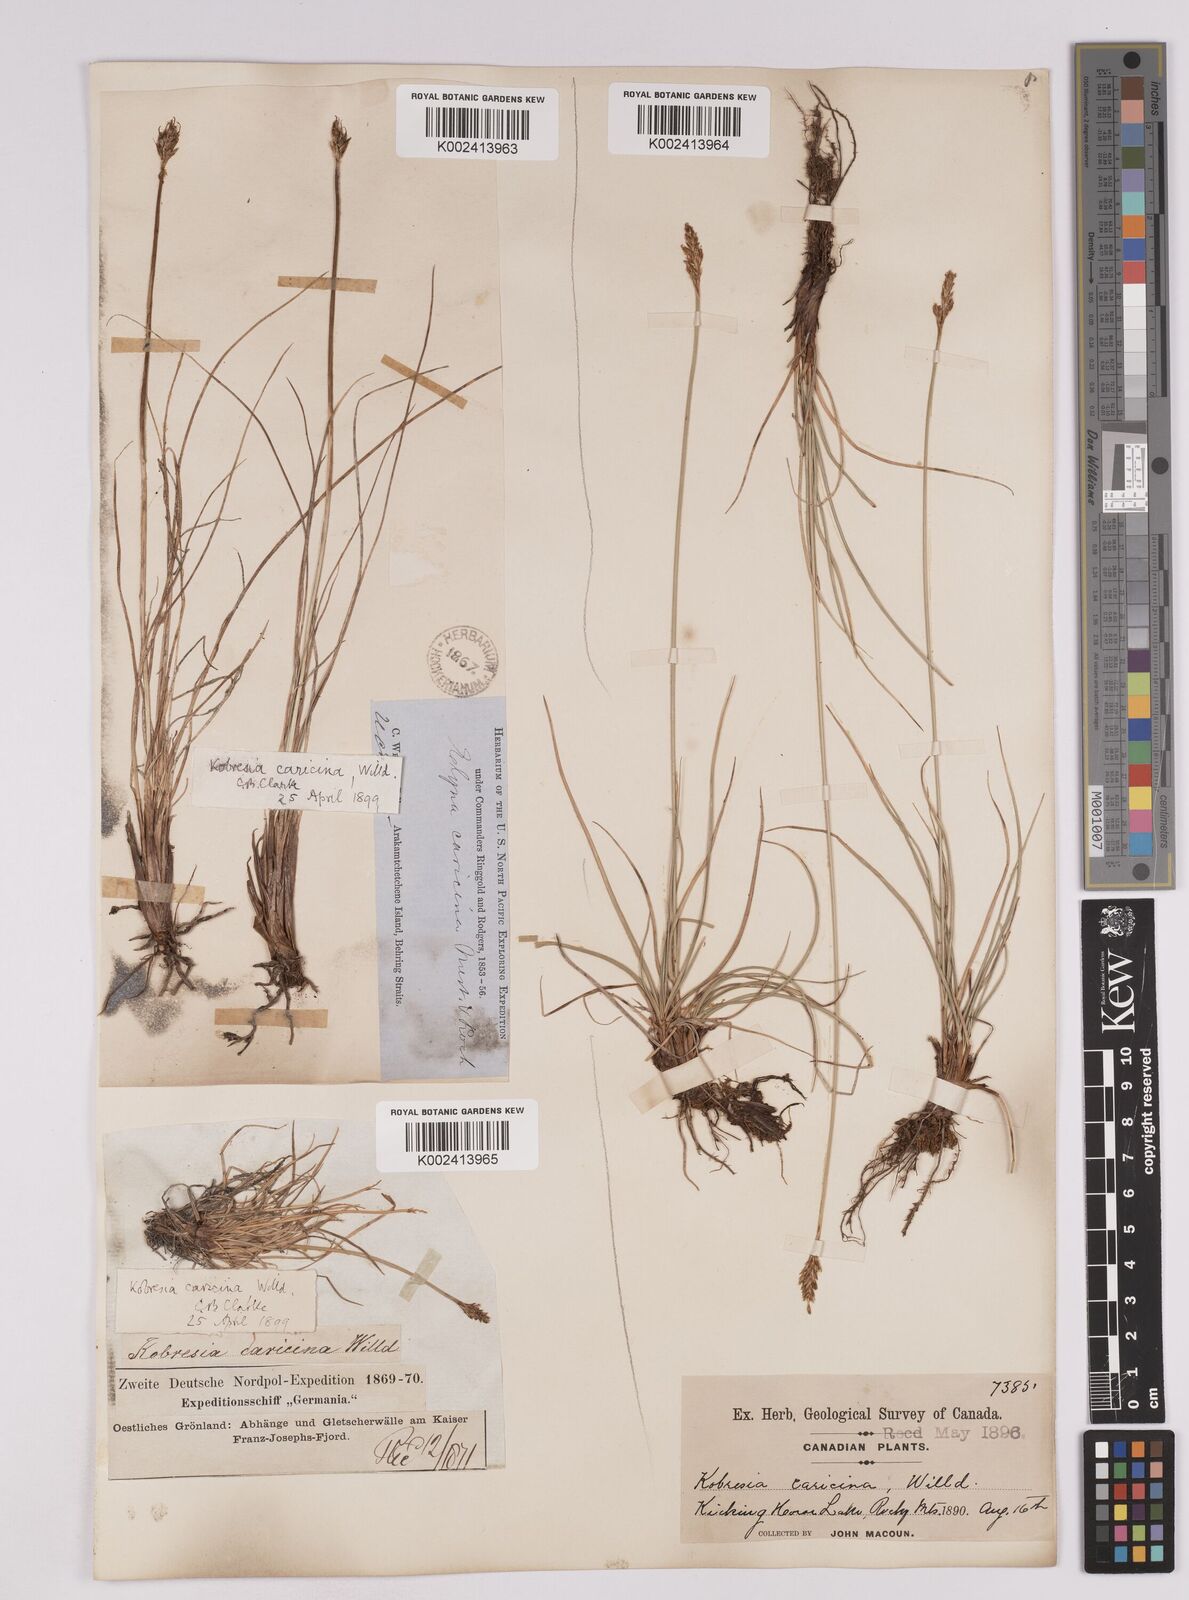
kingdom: Plantae
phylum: Tracheophyta
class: Liliopsida
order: Poales
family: Cyperaceae
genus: Carex
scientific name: Carex simpliciuscula
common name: Simple bog sedge
